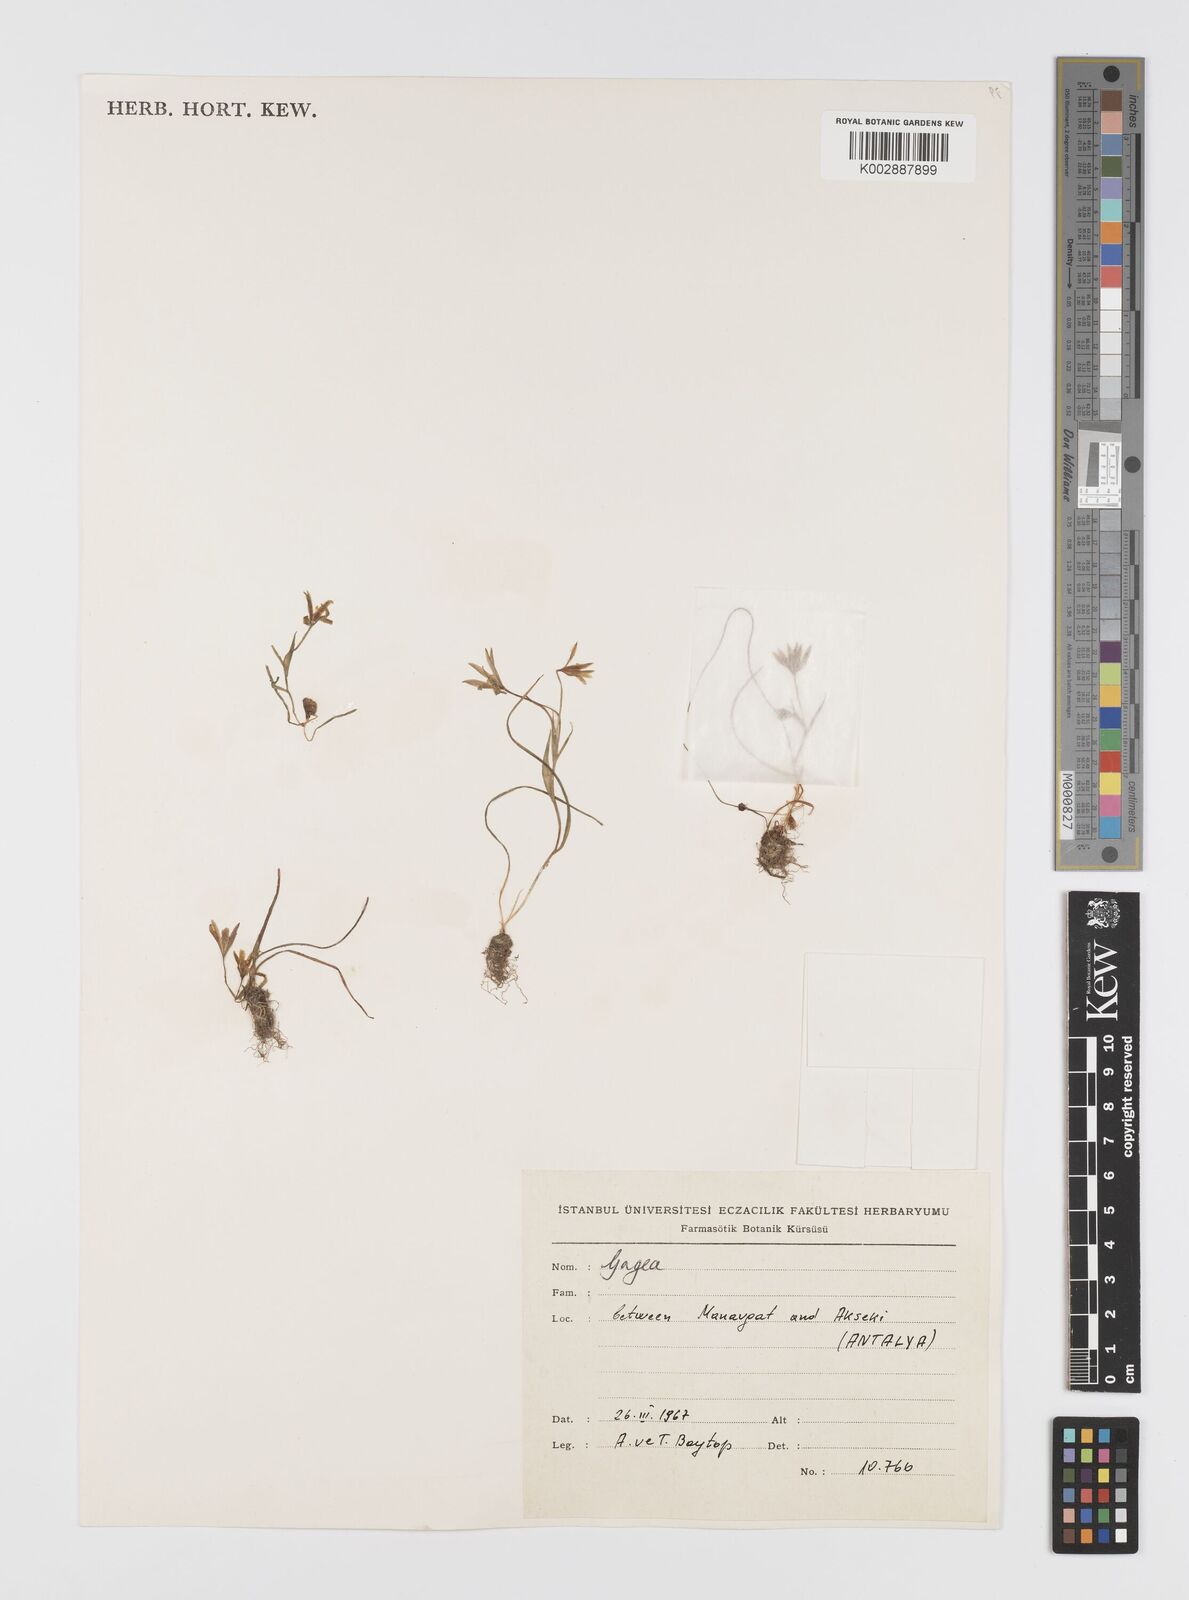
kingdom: Plantae
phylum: Tracheophyta
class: Liliopsida
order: Liliales
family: Liliaceae
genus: Gagea
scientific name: Gagea peduncularis
